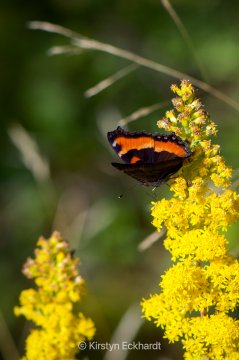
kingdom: Animalia
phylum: Arthropoda
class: Insecta
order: Lepidoptera
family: Nymphalidae
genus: Aglais
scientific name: Aglais milberti
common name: Milbert's Tortoiseshell
